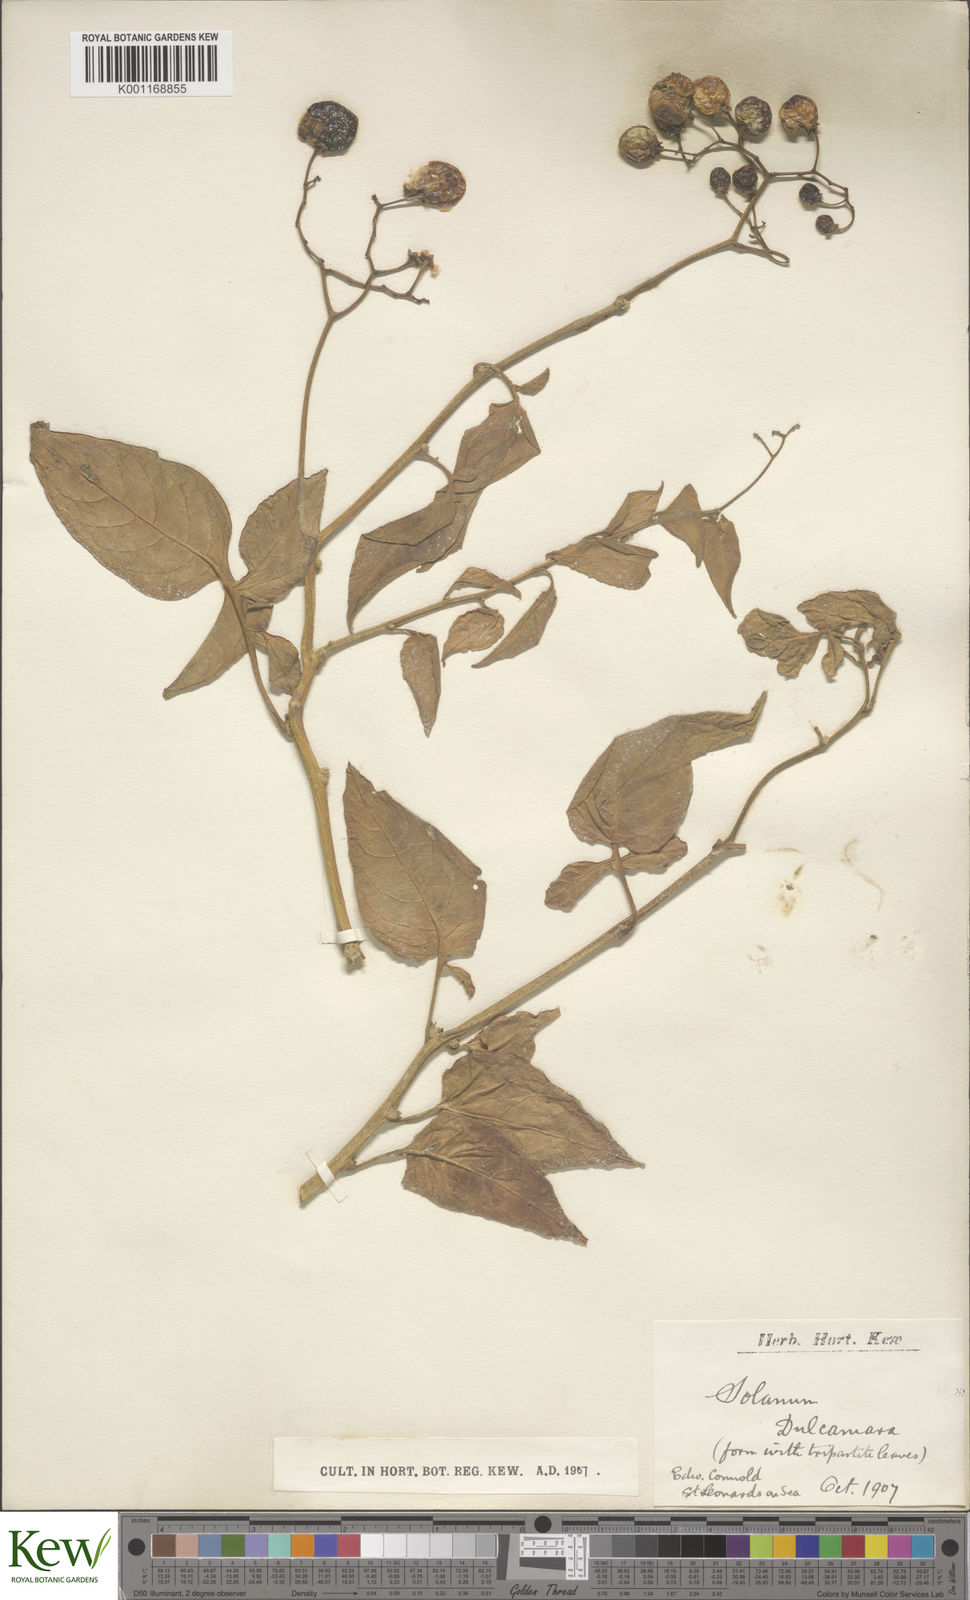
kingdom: Plantae
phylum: Tracheophyta
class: Magnoliopsida
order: Solanales
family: Solanaceae
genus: Solanum
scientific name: Solanum dulcamara
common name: Climbing nightshade
